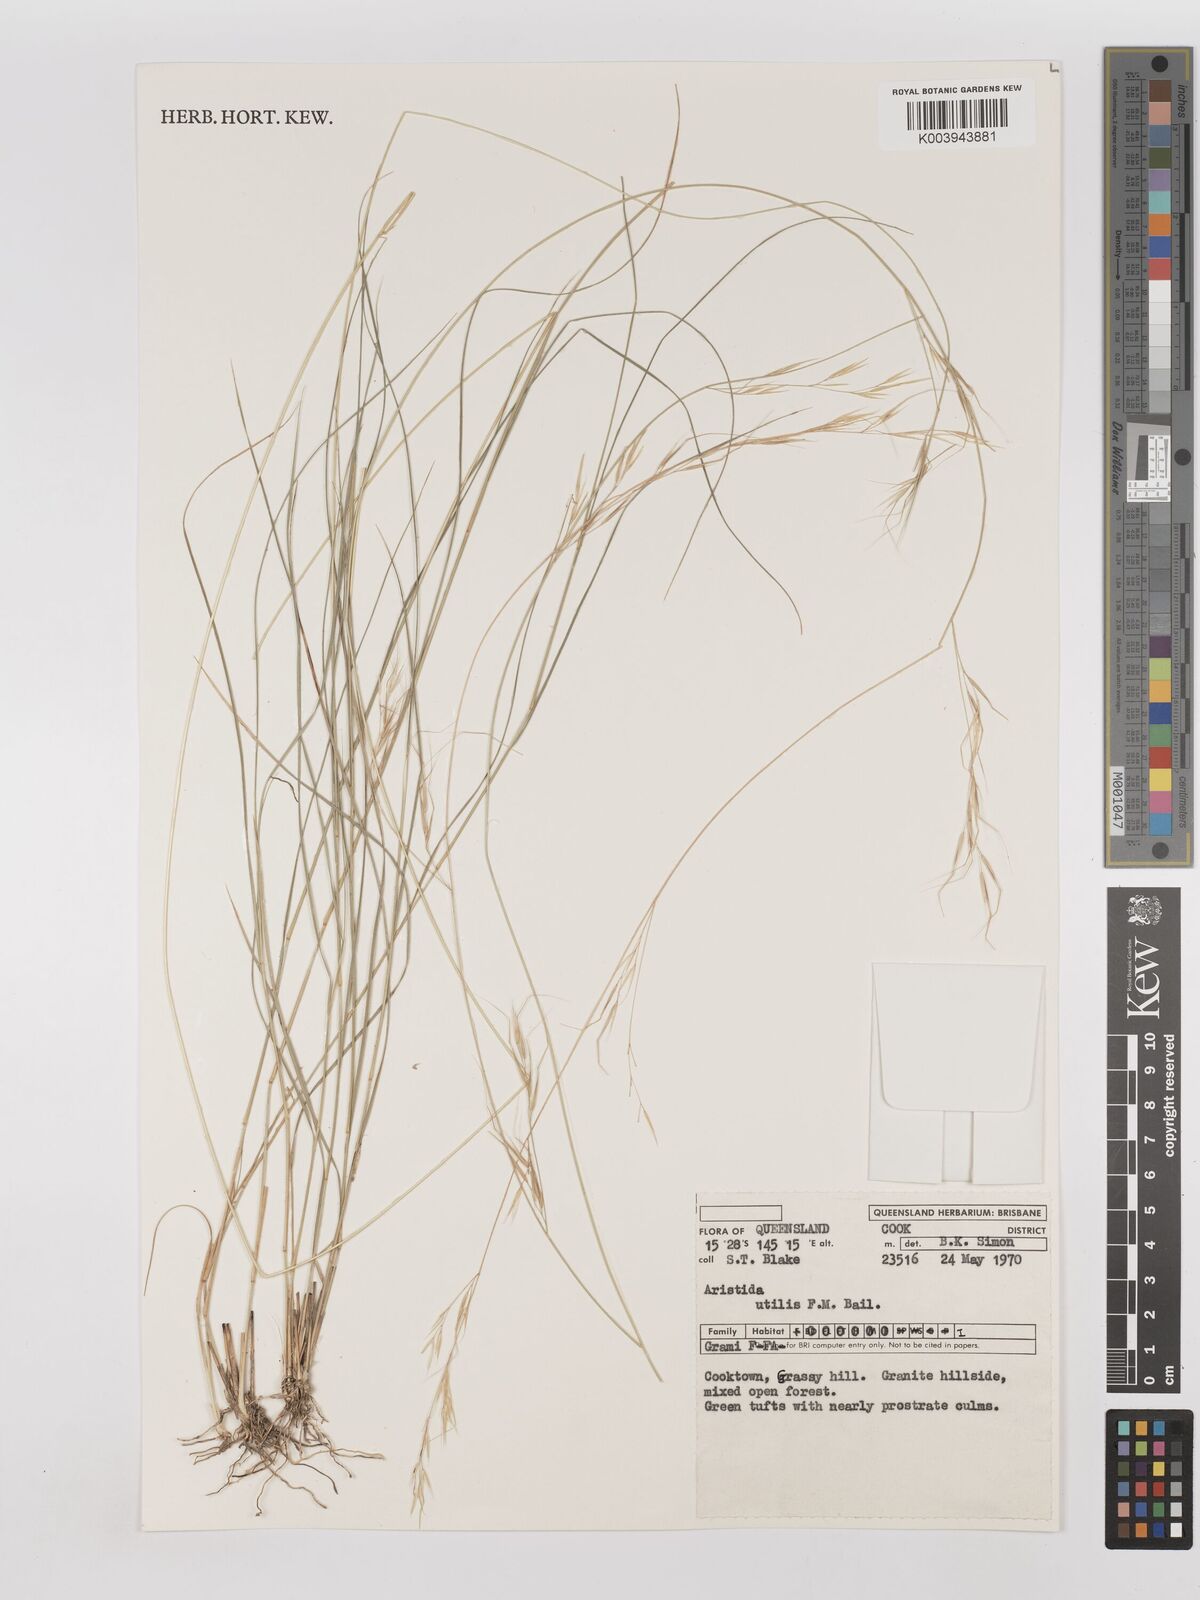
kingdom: Plantae
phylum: Tracheophyta
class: Liliopsida
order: Poales
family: Poaceae
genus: Aristida
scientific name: Aristida utilis
